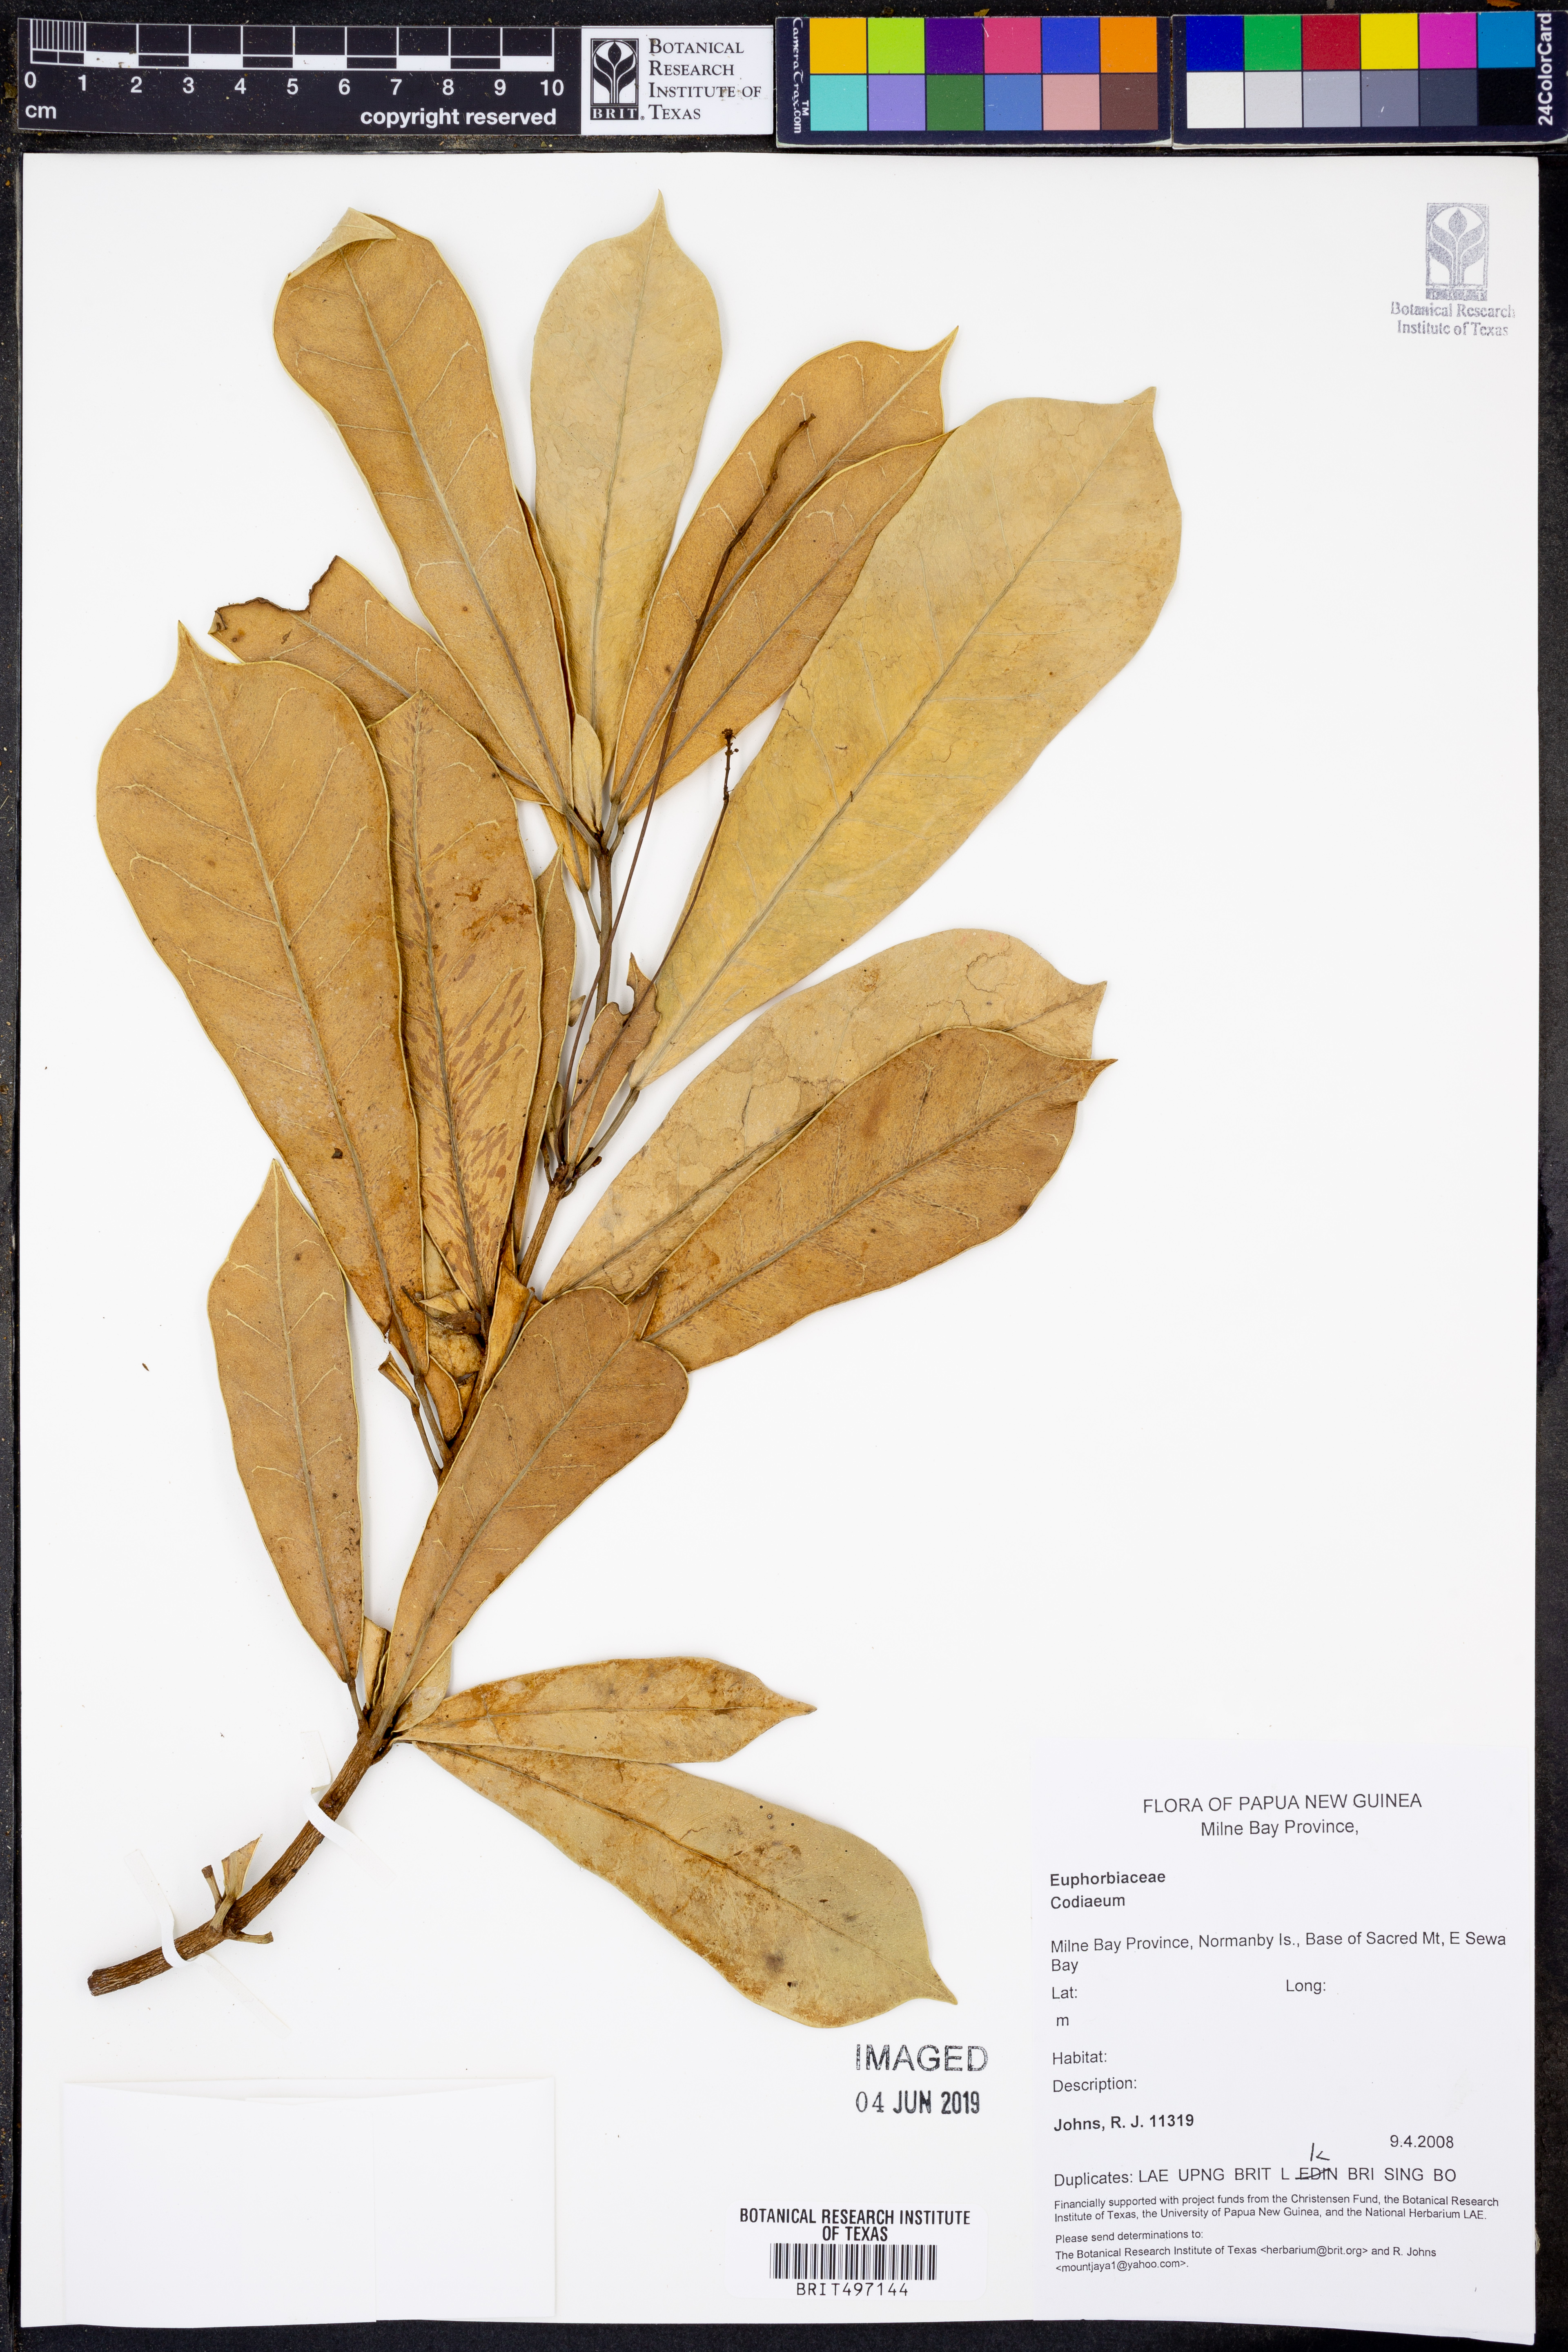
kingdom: Plantae
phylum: Tracheophyta
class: Magnoliopsida
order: Malpighiales
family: Euphorbiaceae
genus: Codiaeum
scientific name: Codiaeum
